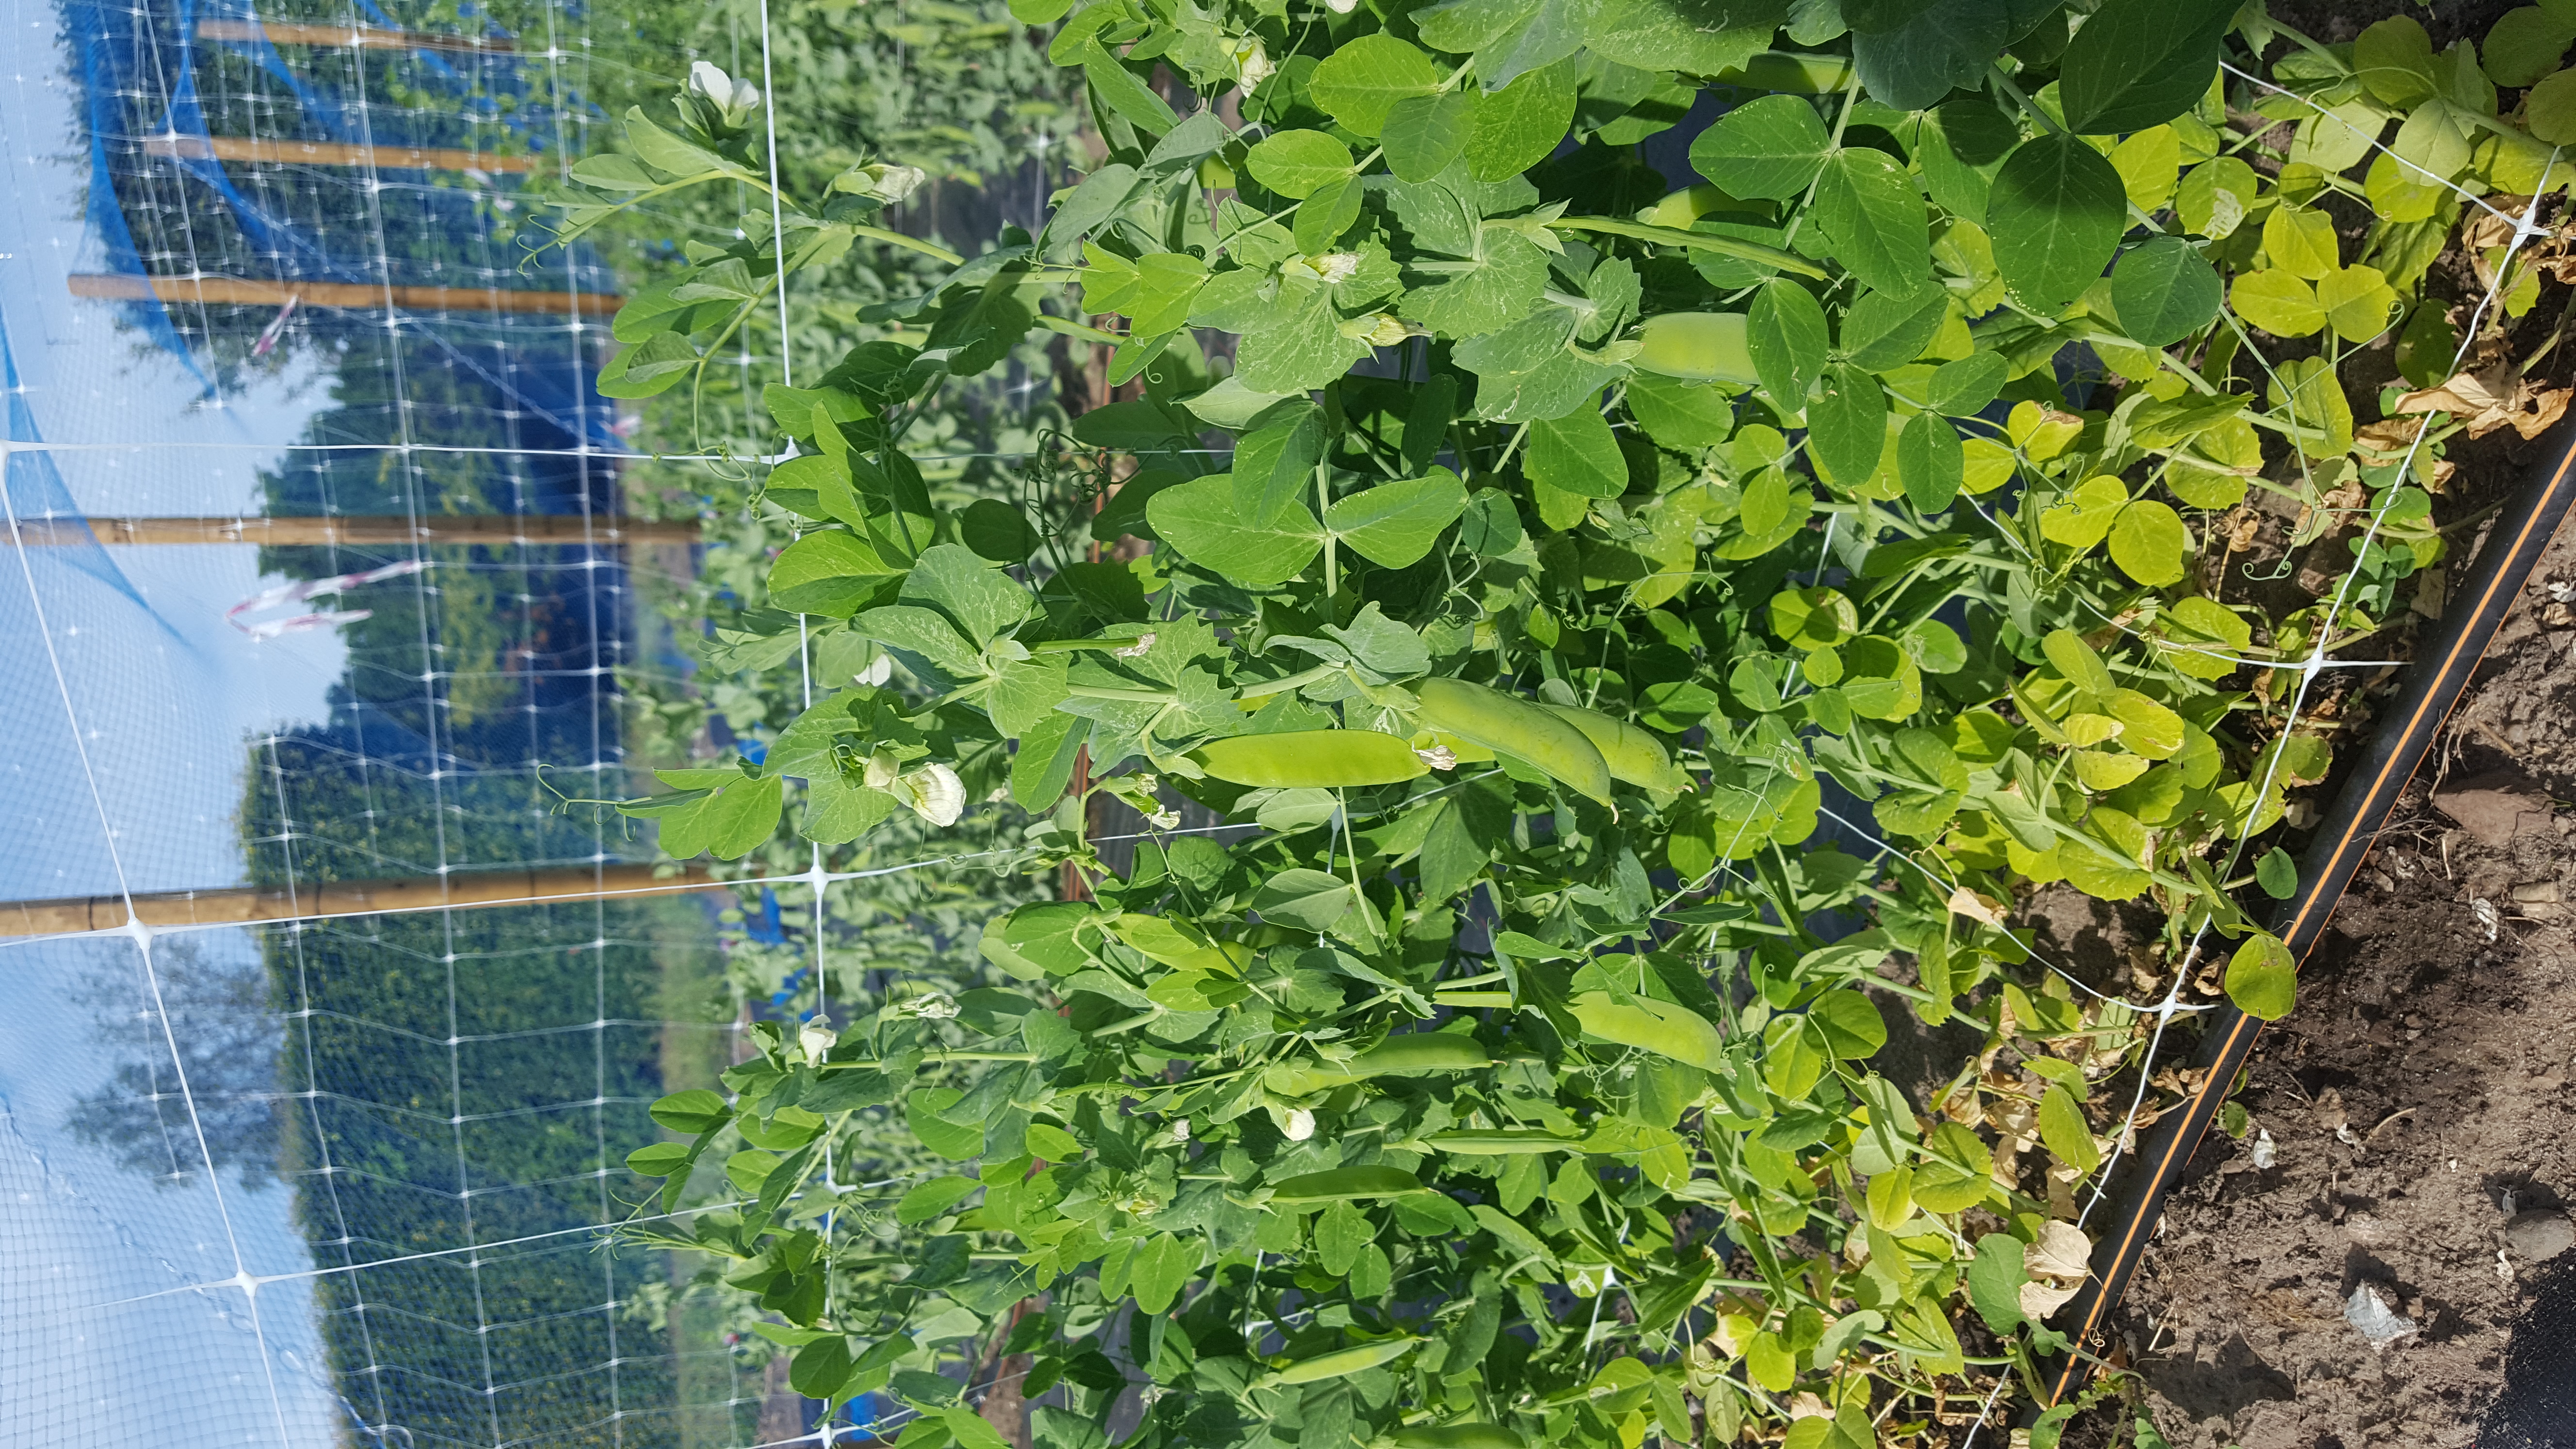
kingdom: Plantae
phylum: Tracheophyta
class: Magnoliopsida
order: Fabales
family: Fabaceae
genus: Lathyrus
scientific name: Lathyrus oleraceus
